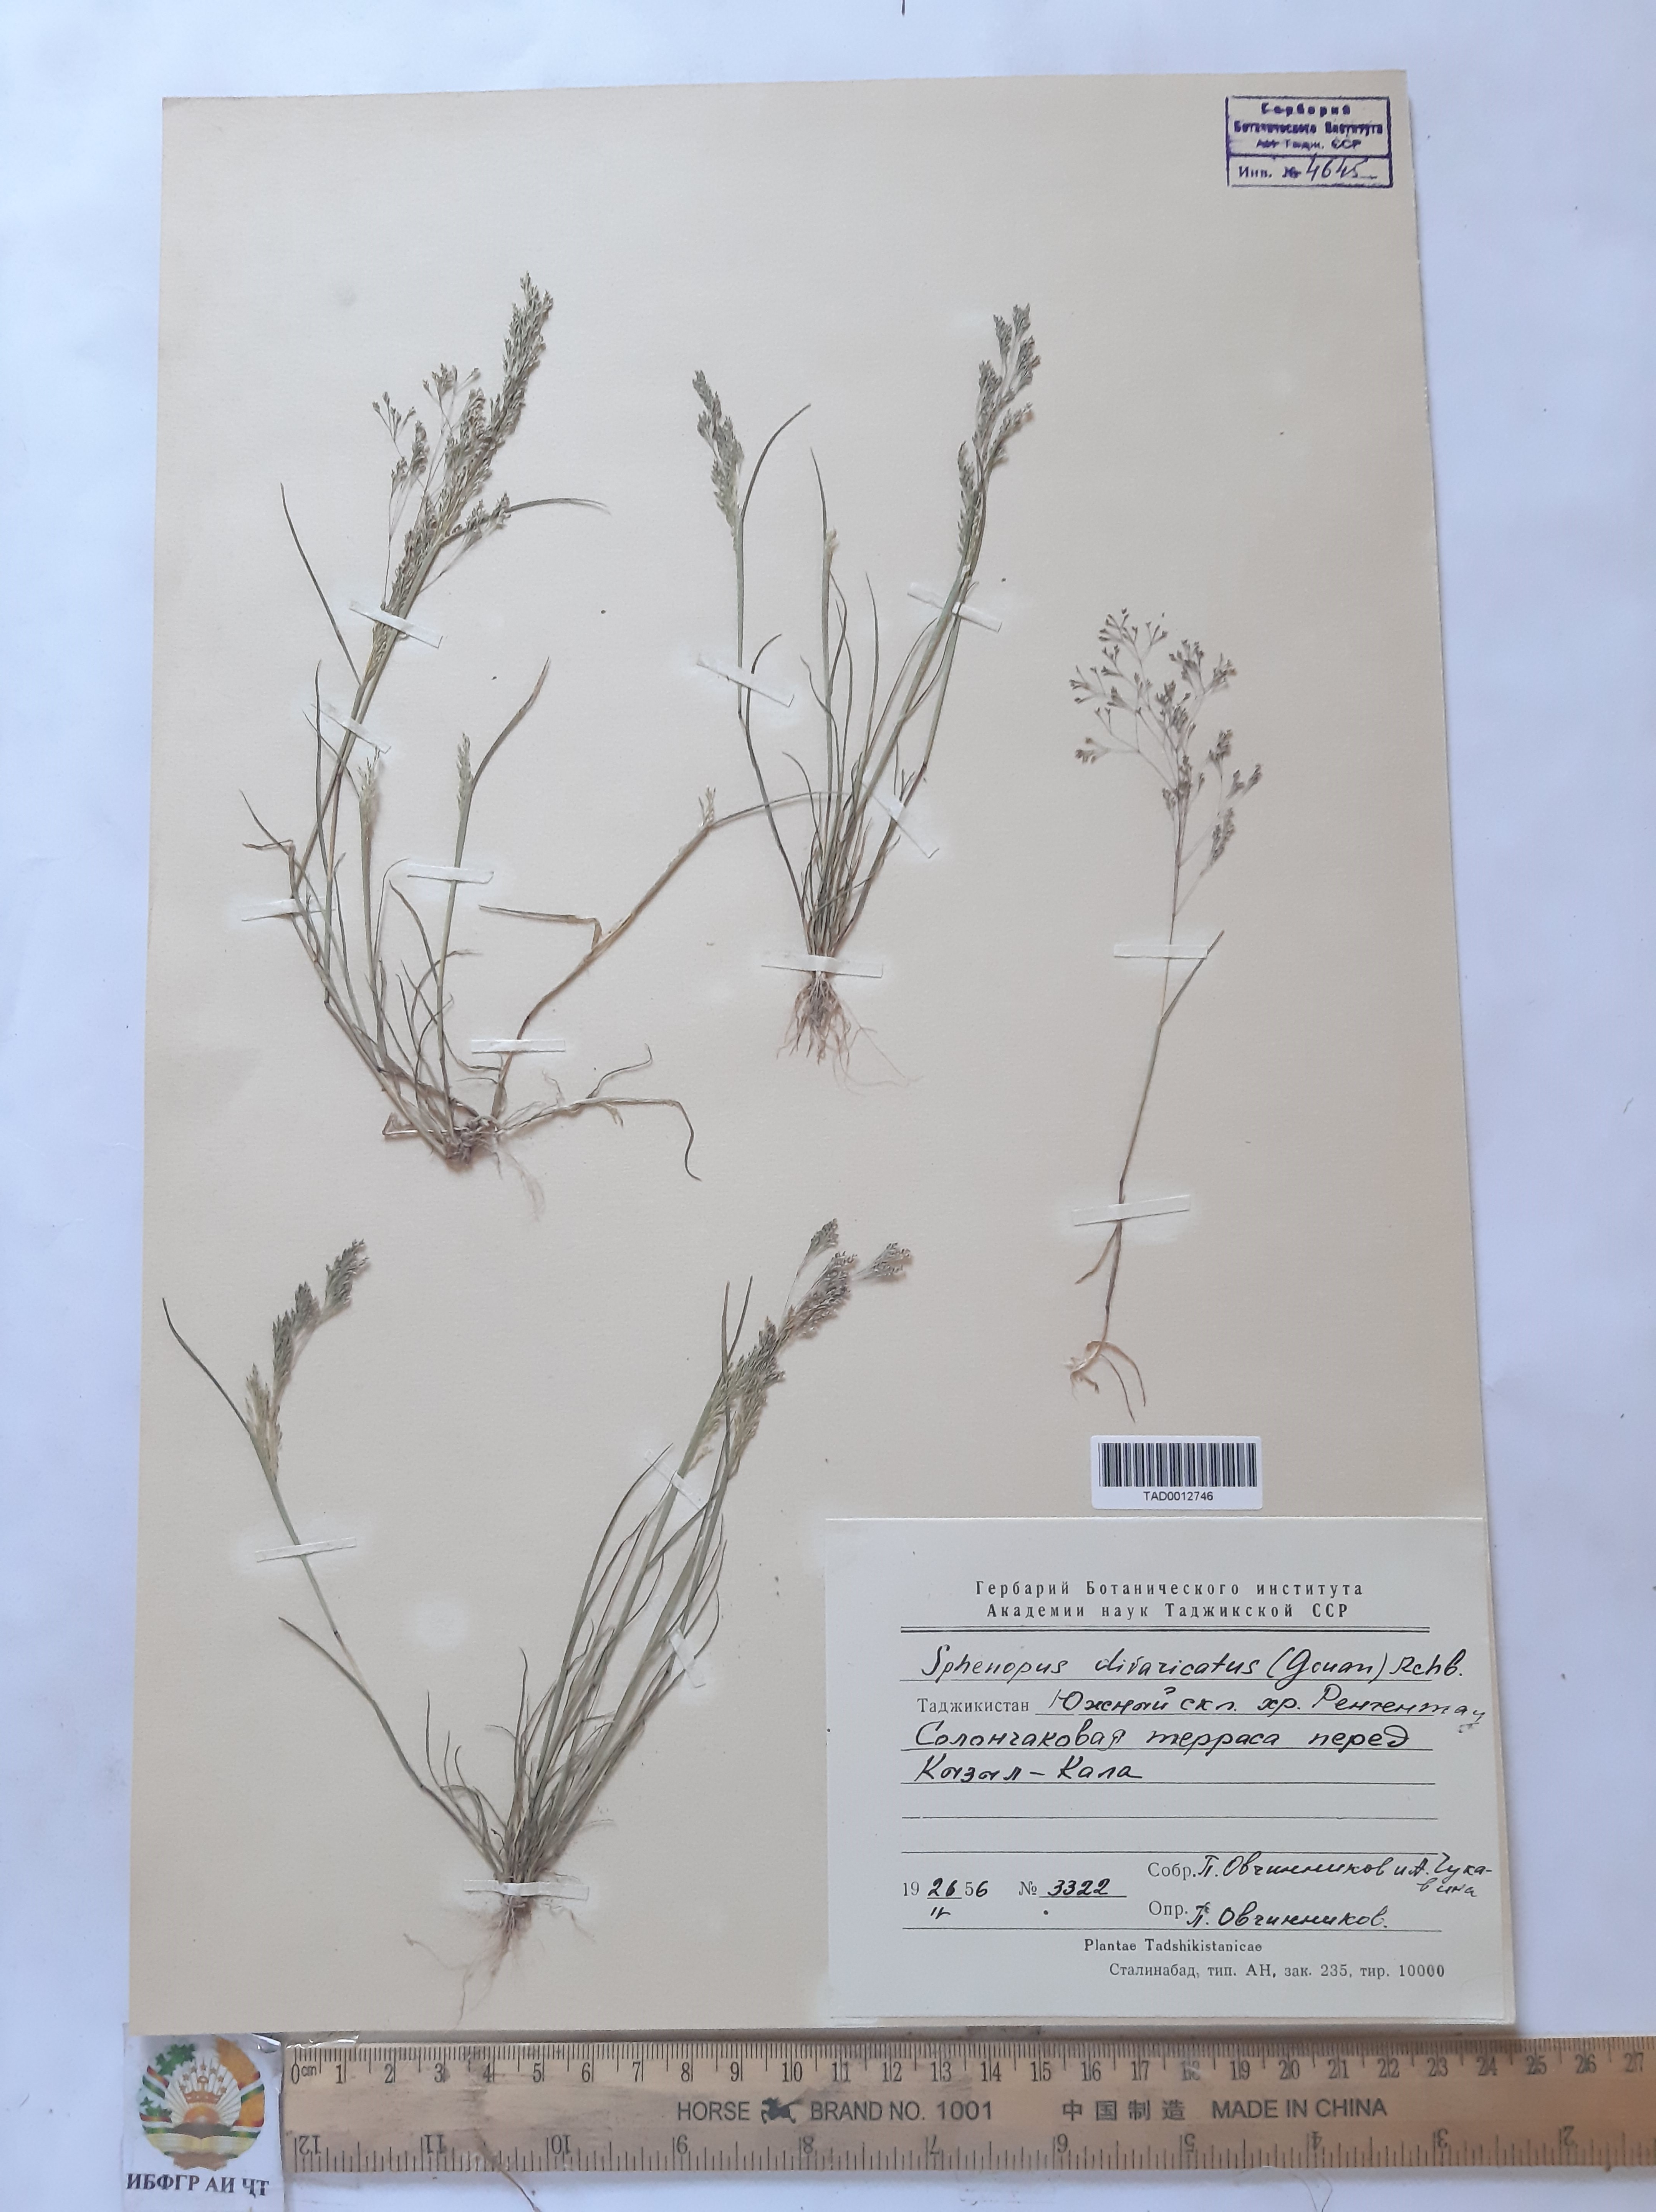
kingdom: Plantae
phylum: Tracheophyta
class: Liliopsida
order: Poales
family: Poaceae
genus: Sphenopus
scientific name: Sphenopus divaricatus
